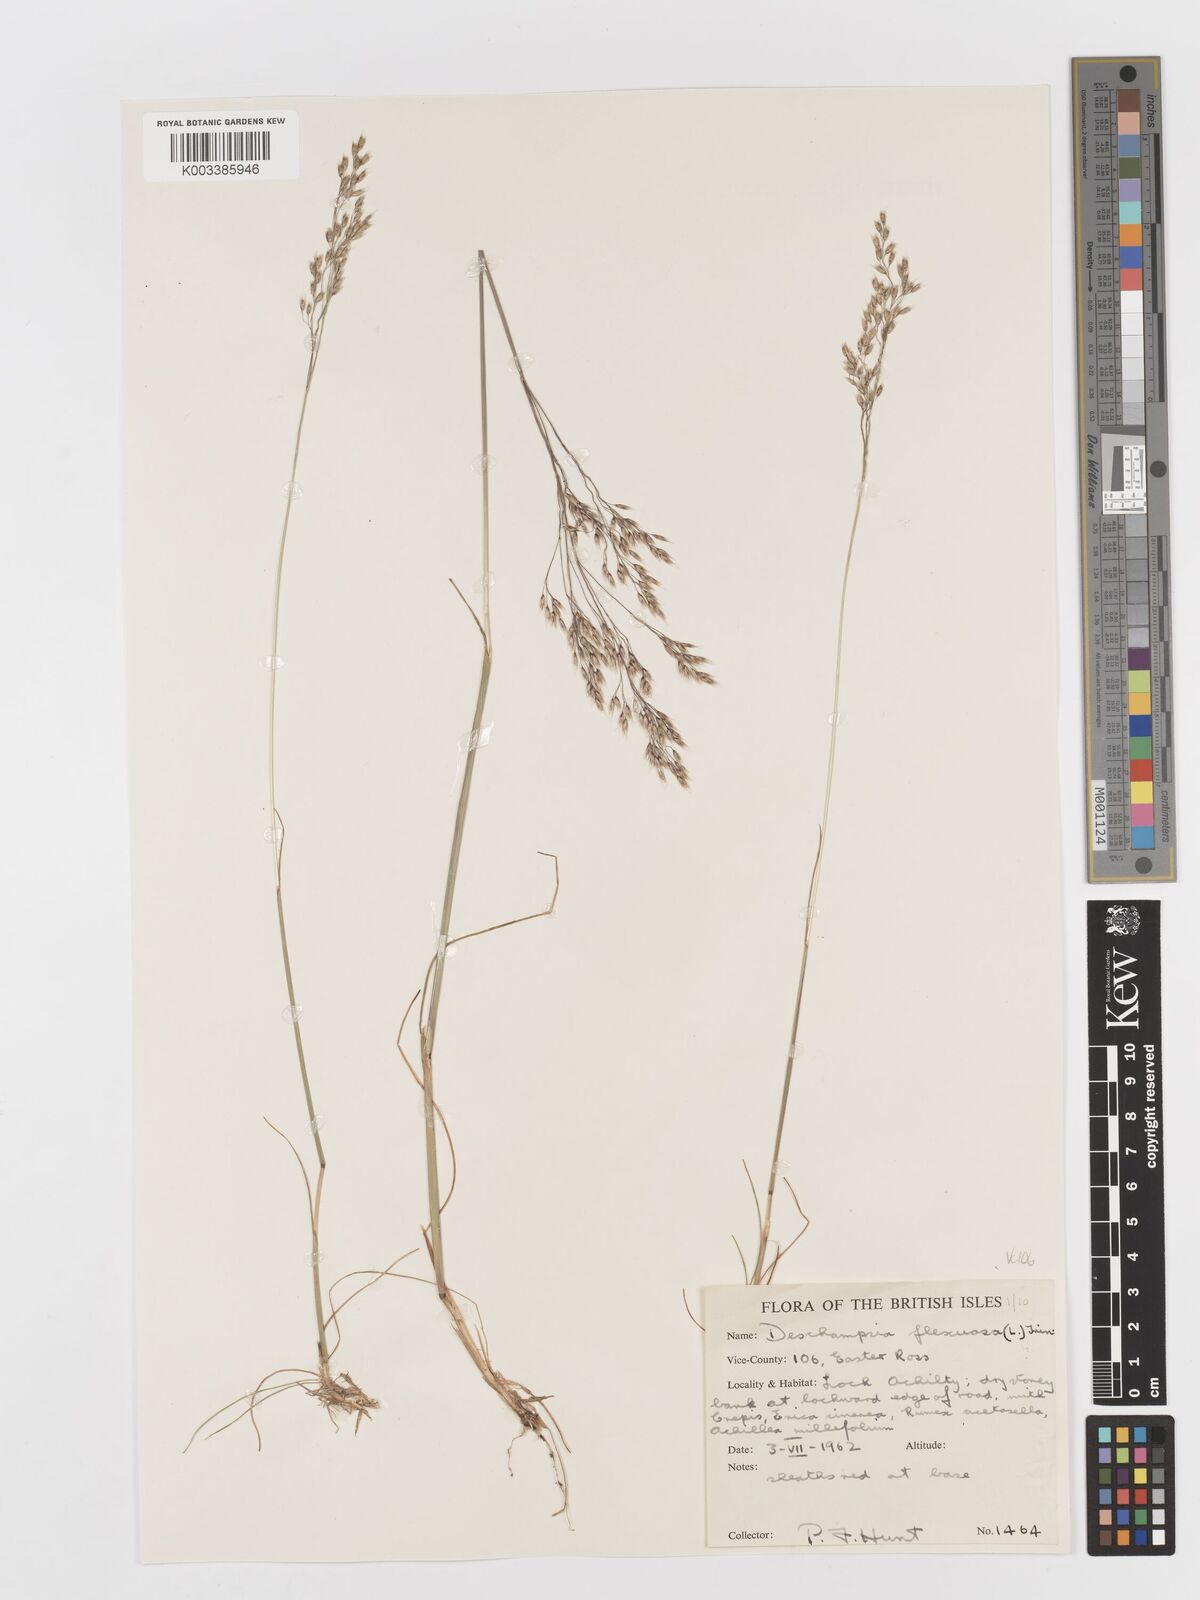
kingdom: Plantae
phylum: Tracheophyta
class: Liliopsida
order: Poales
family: Poaceae
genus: Avenella
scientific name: Avenella flexuosa
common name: Wavy hairgrass
